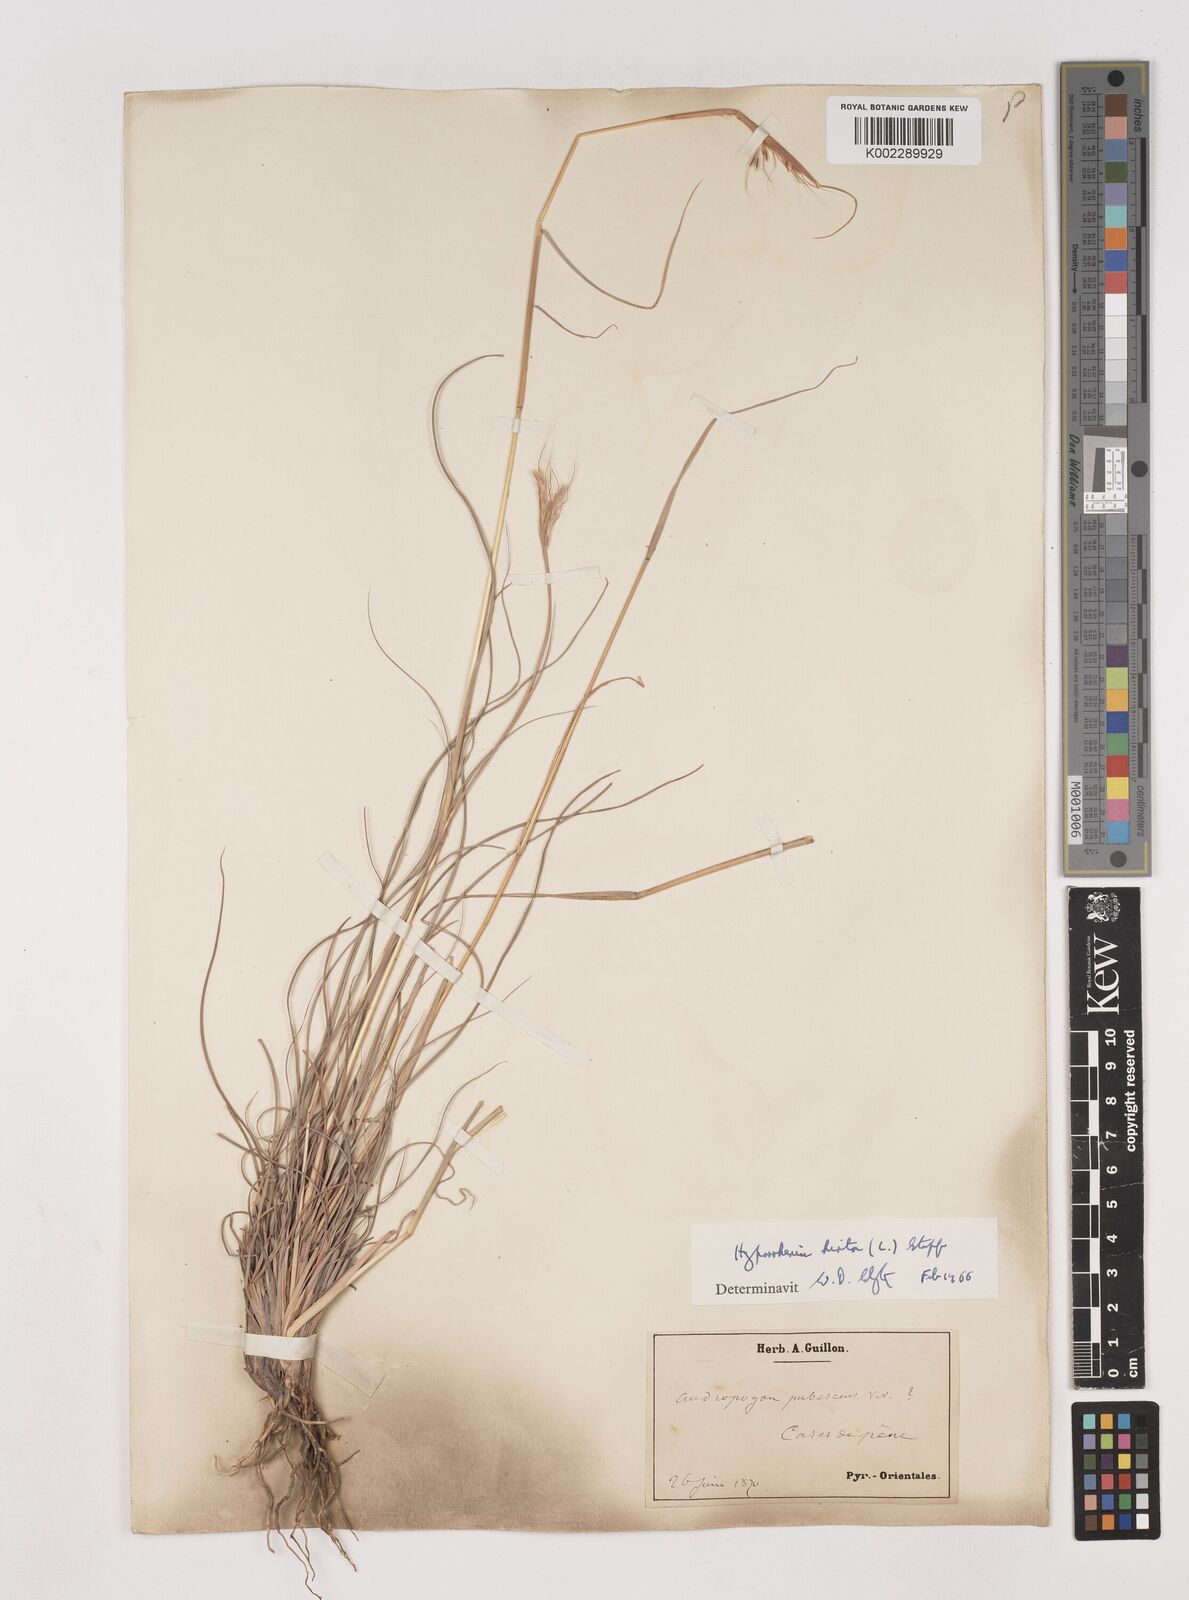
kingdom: Plantae
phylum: Tracheophyta
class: Liliopsida
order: Poales
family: Poaceae
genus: Hyparrhenia
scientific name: Hyparrhenia hirta
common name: Thatching grass
